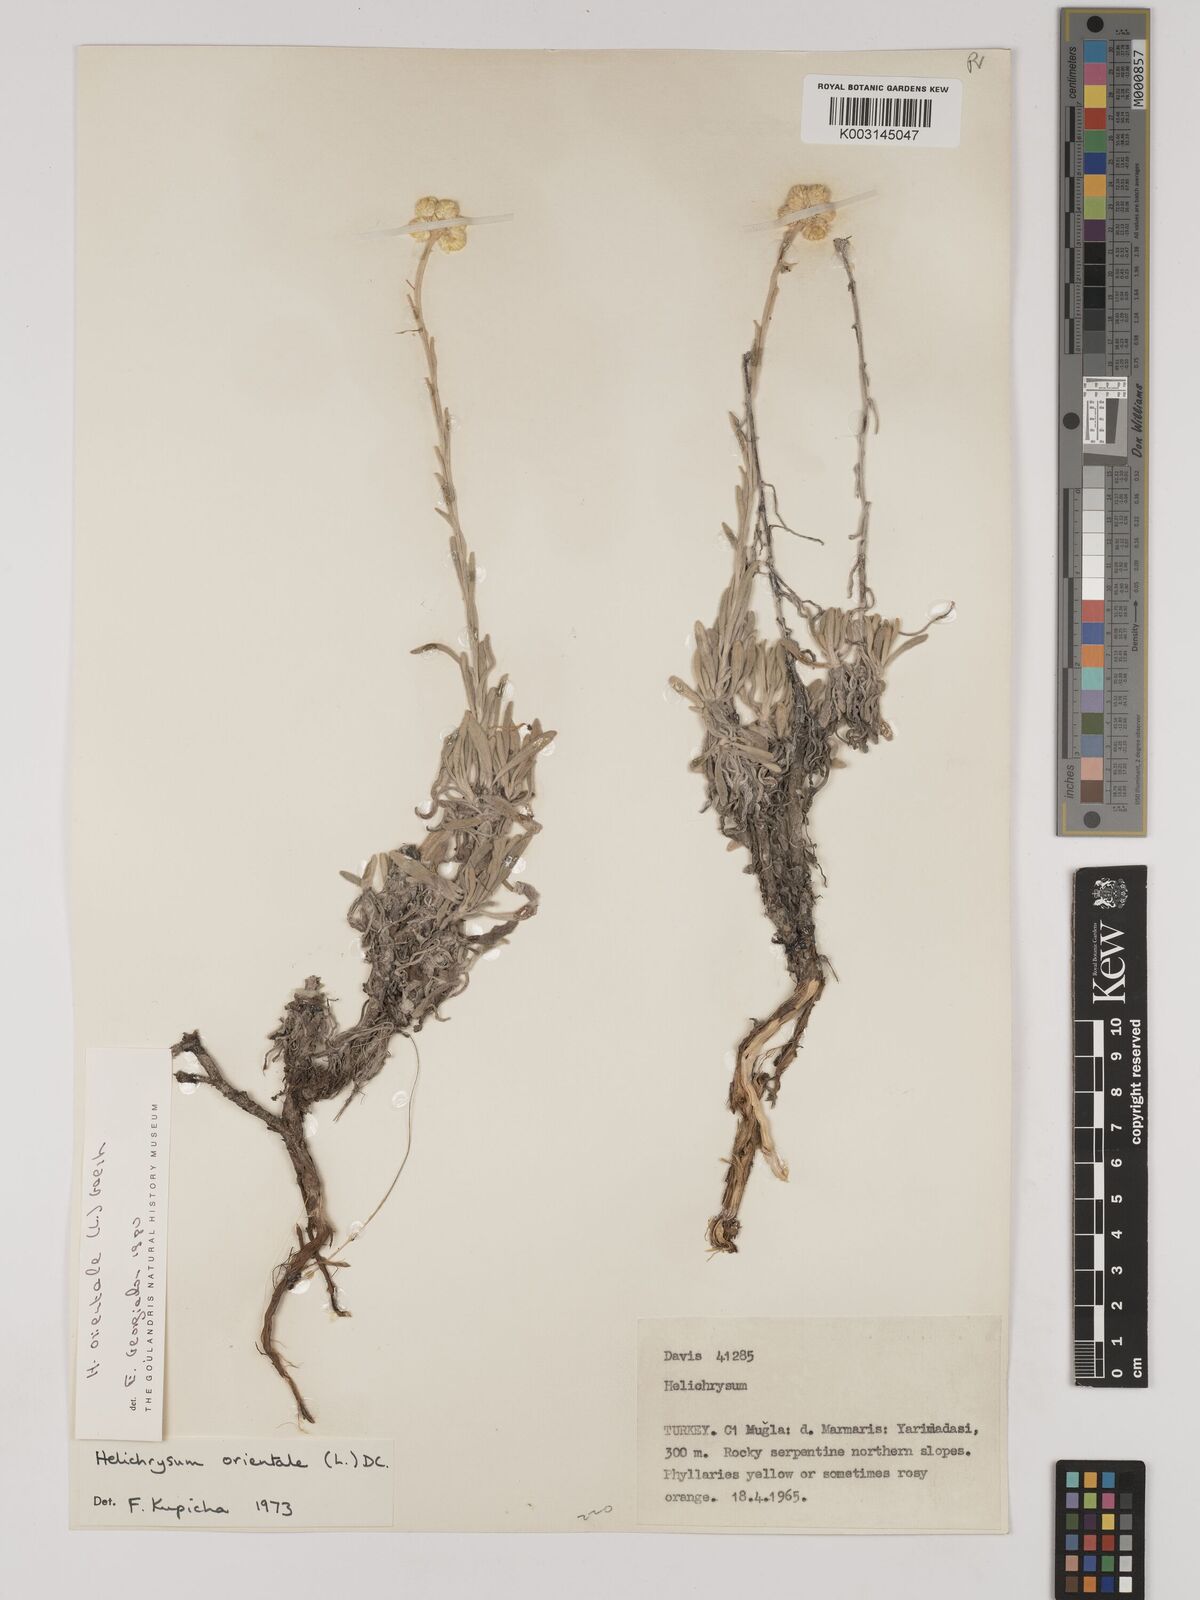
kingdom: Plantae
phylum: Tracheophyta
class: Magnoliopsida
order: Asterales
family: Asteraceae
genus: Helichrysum
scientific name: Helichrysum orientale
